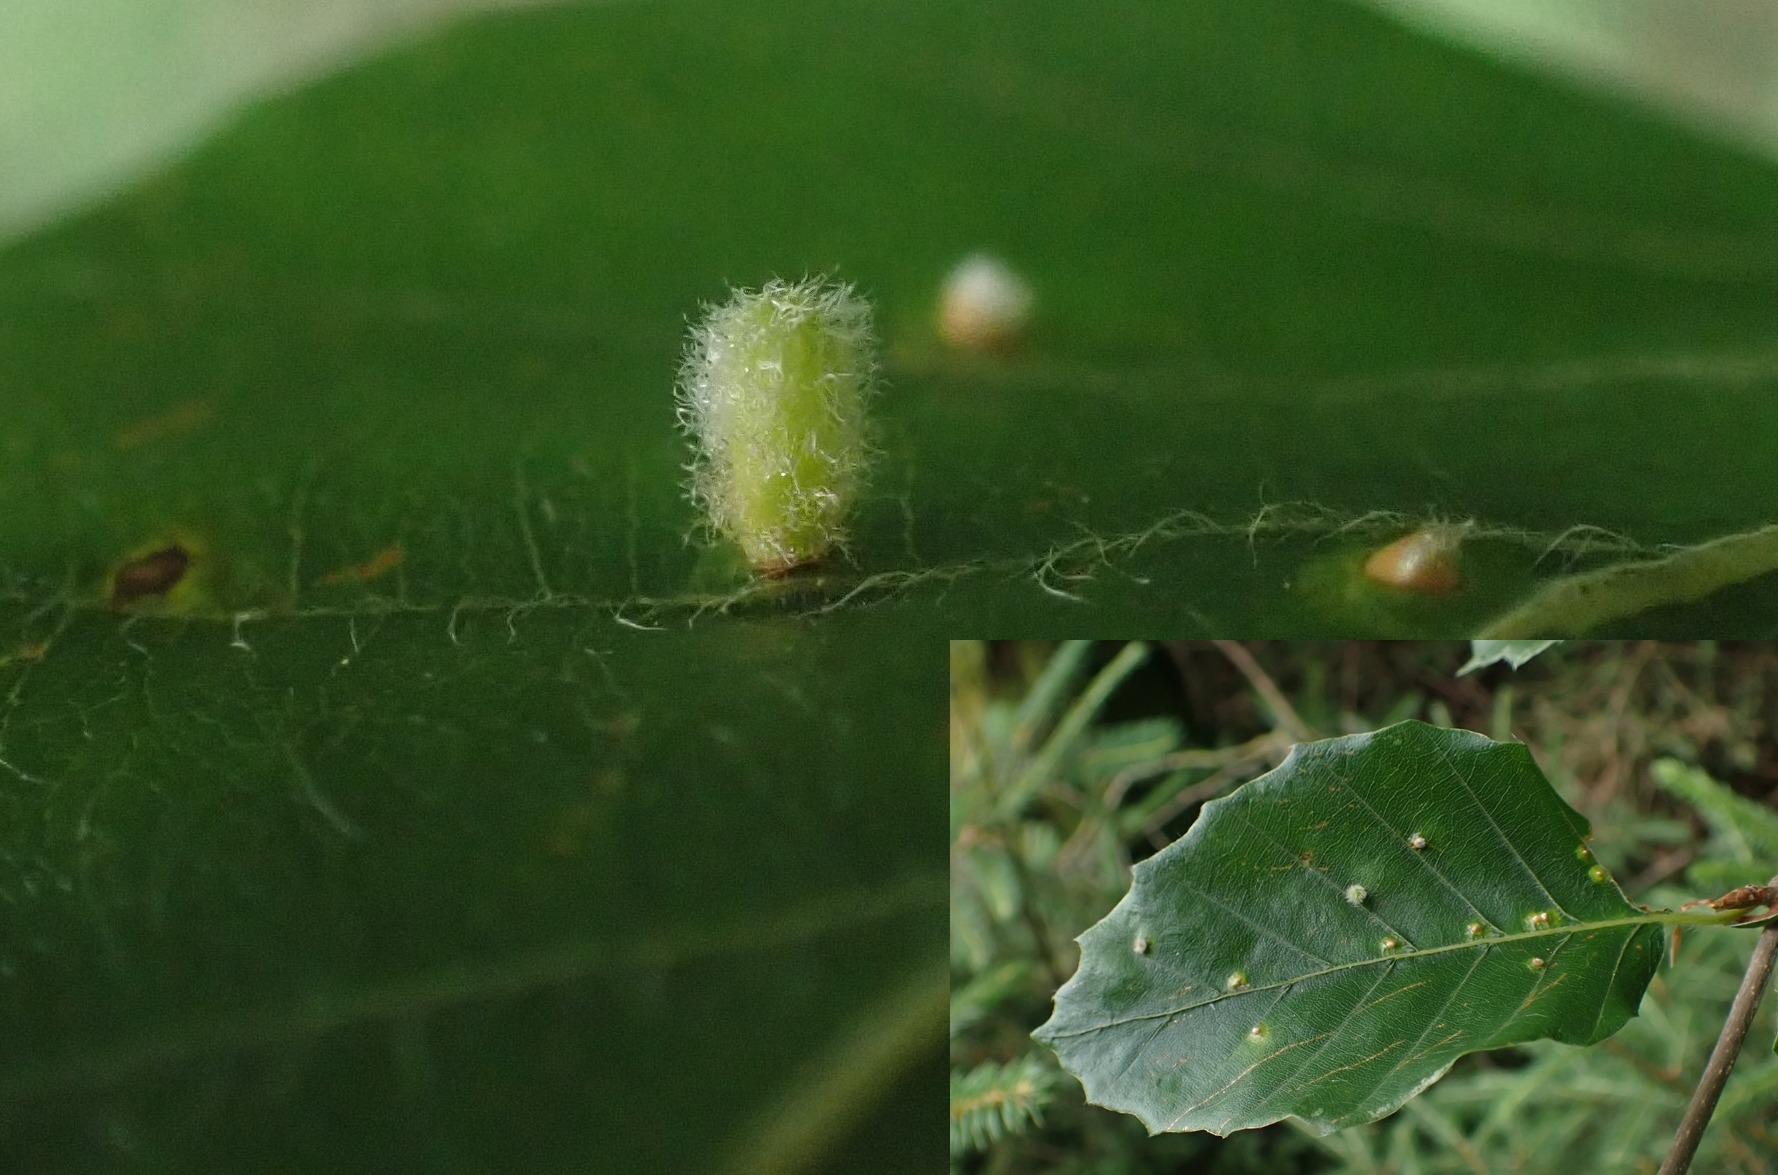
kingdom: Animalia
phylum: Arthropoda
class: Insecta
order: Diptera
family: Cecidomyiidae
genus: Hartigiola
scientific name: Hartigiola annulipes
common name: Skovtroldegalmyg
